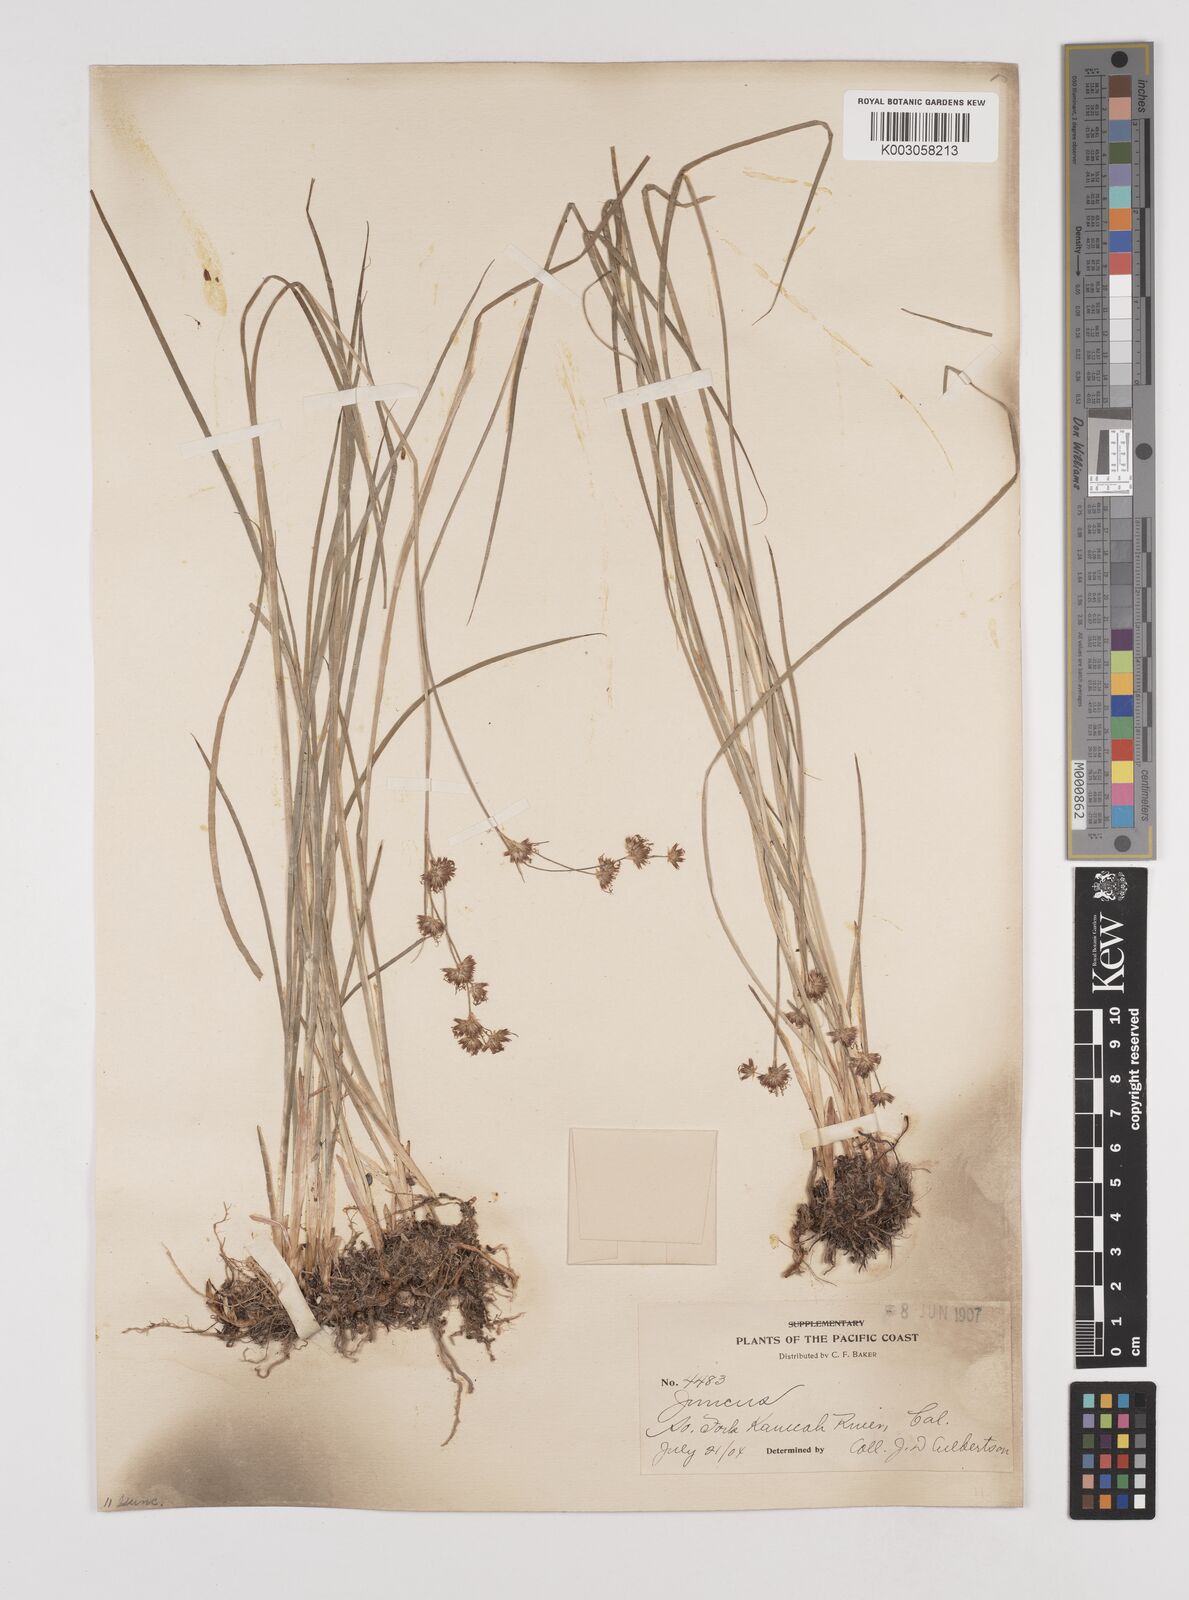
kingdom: Plantae
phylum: Tracheophyta
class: Liliopsida
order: Poales
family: Juncaceae
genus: Juncus
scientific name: Juncus
